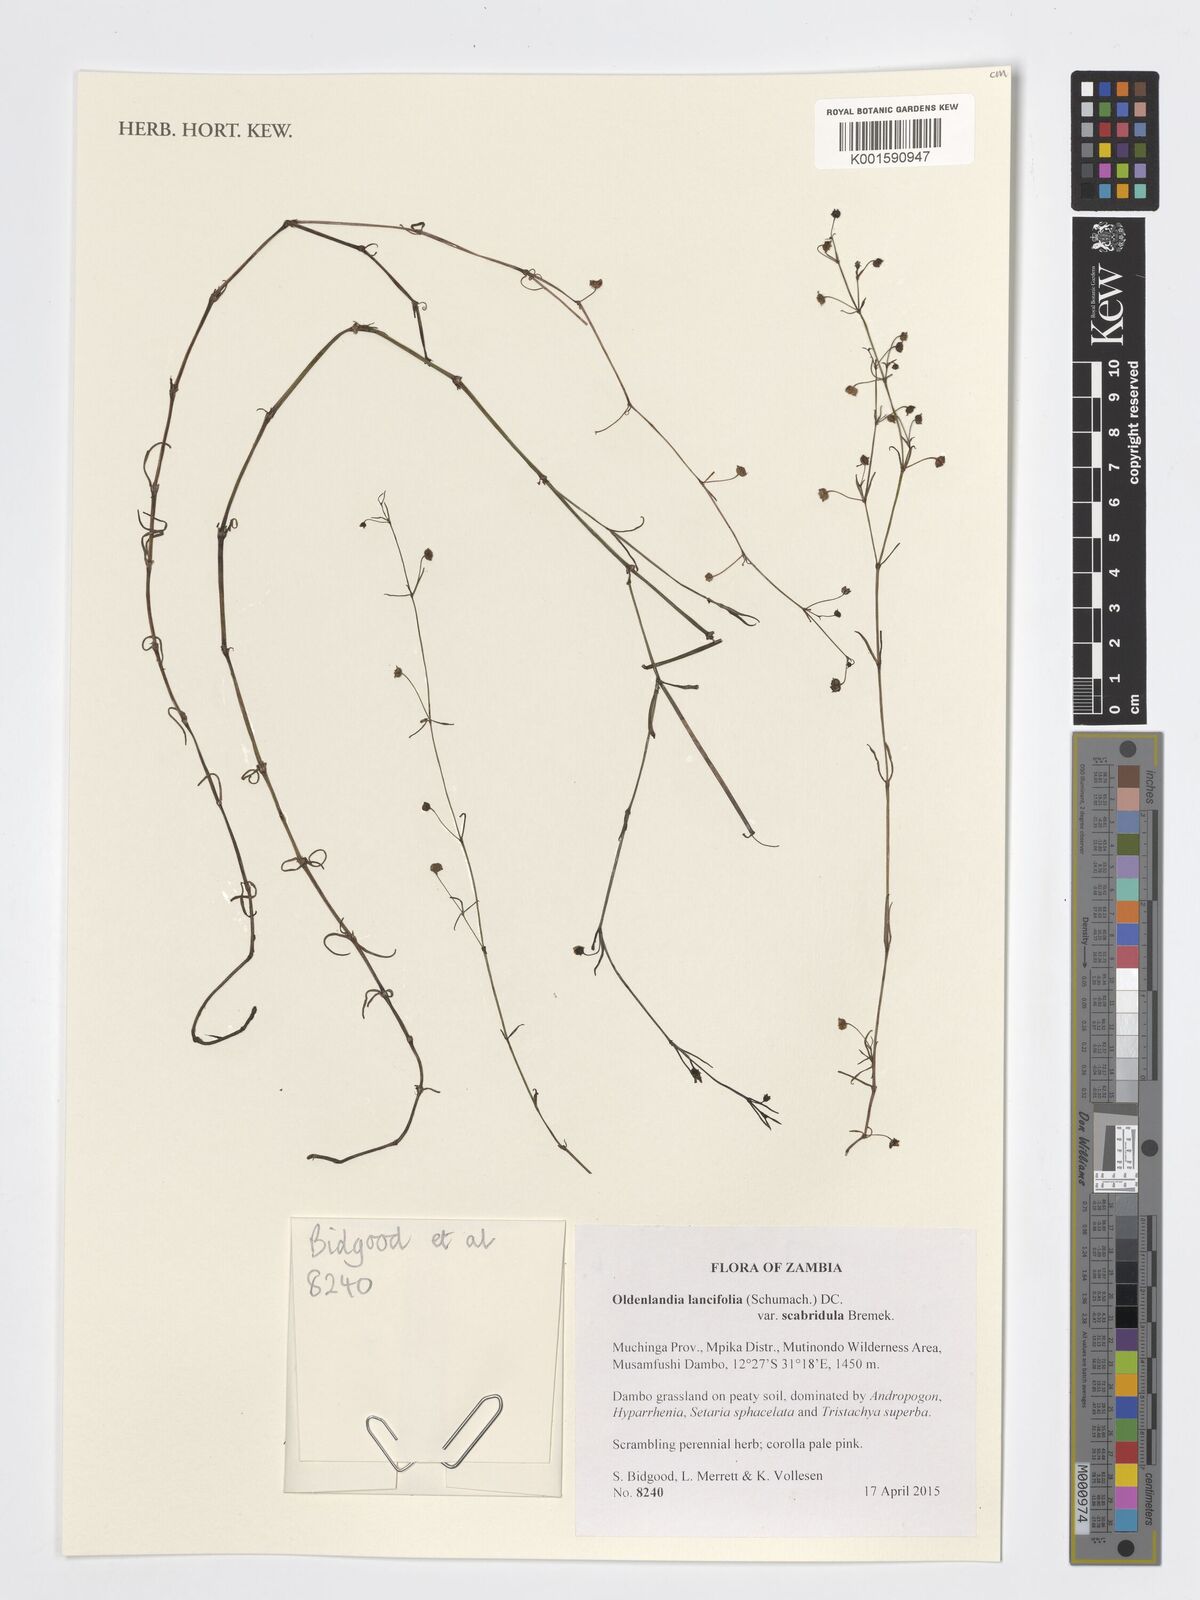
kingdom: Plantae
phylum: Tracheophyta
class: Magnoliopsida
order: Gentianales
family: Rubiaceae
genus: Oldenlandia
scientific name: Oldenlandia lancifolia
